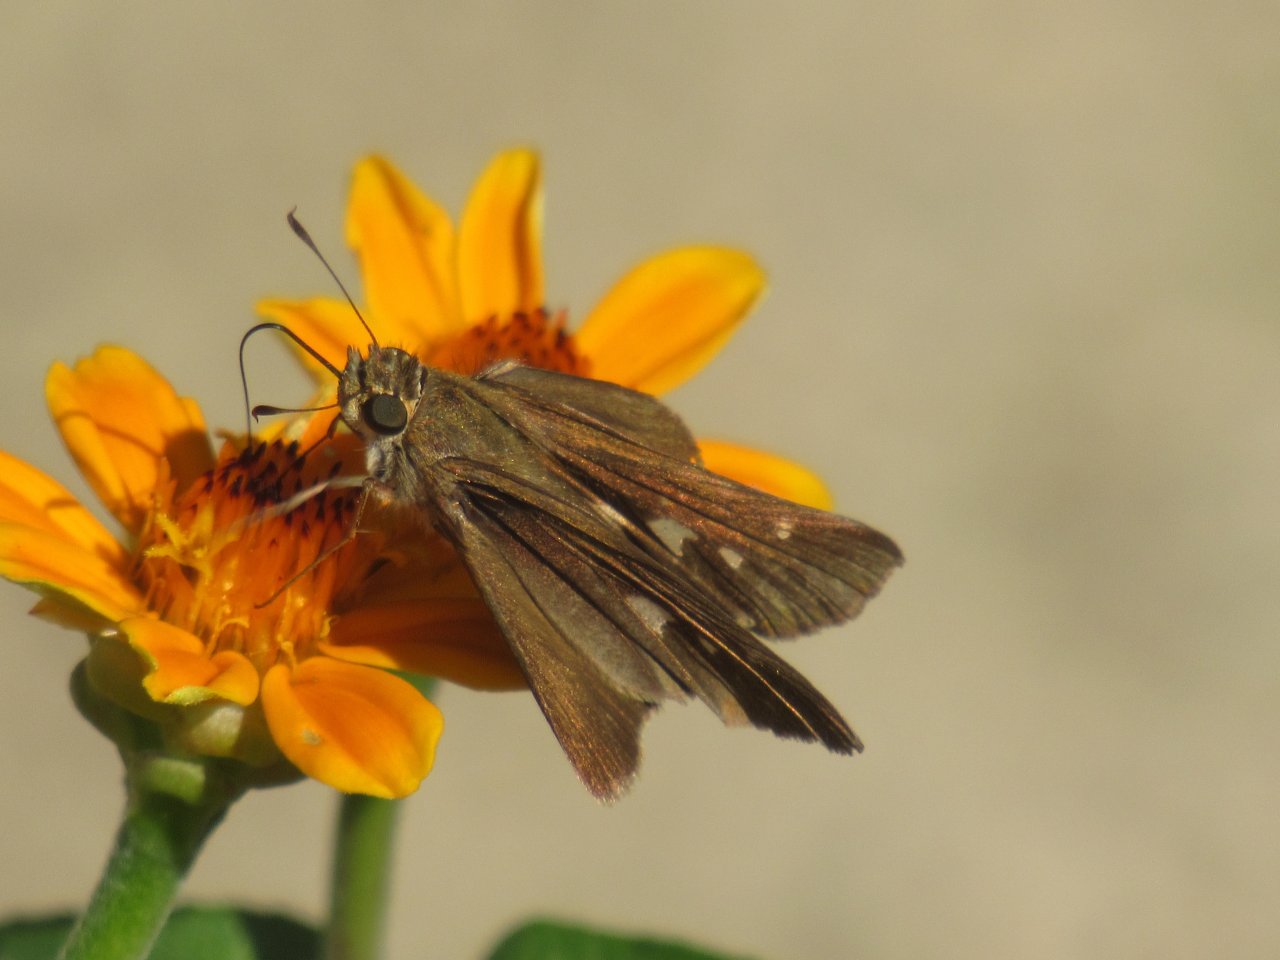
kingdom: Animalia
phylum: Arthropoda
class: Insecta
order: Lepidoptera
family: Hesperiidae
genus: Panoquina
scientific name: Panoquina ocola
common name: Ocola Skipper
